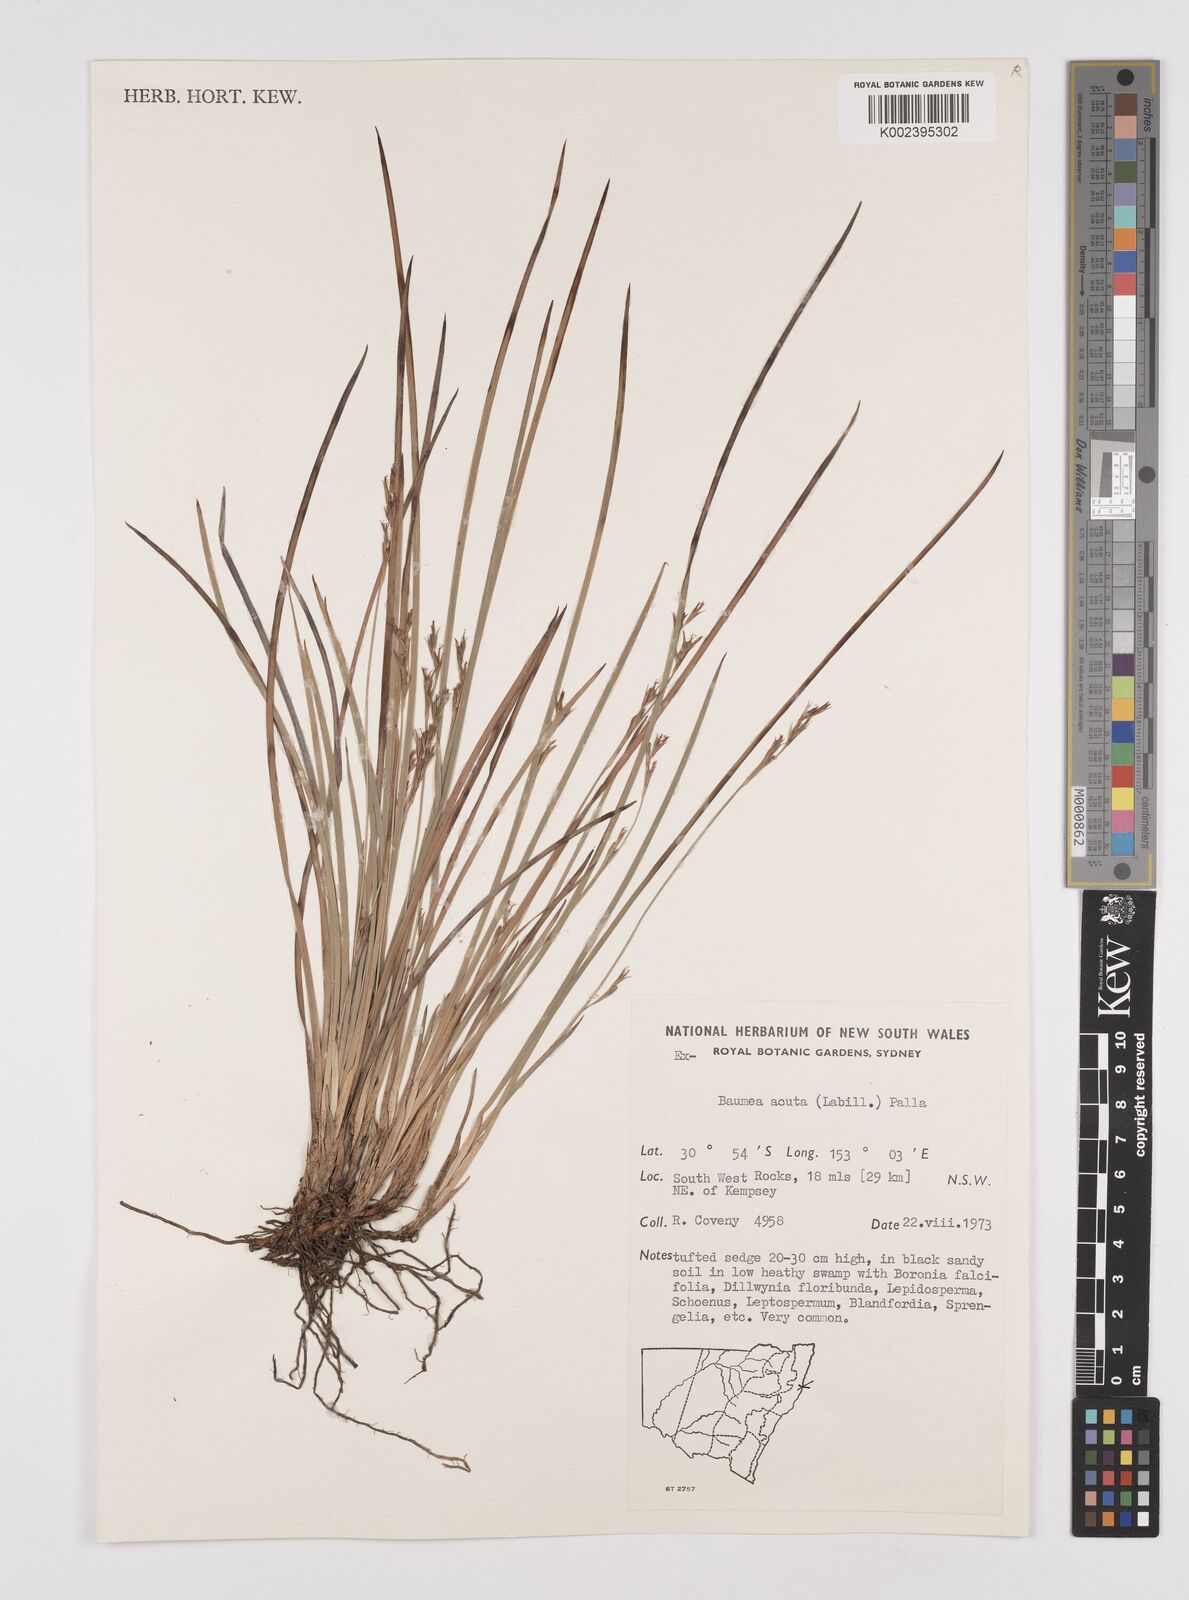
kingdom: Plantae
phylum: Tracheophyta
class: Liliopsida
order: Poales
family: Cyperaceae
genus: Machaerina
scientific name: Machaerina acuta
